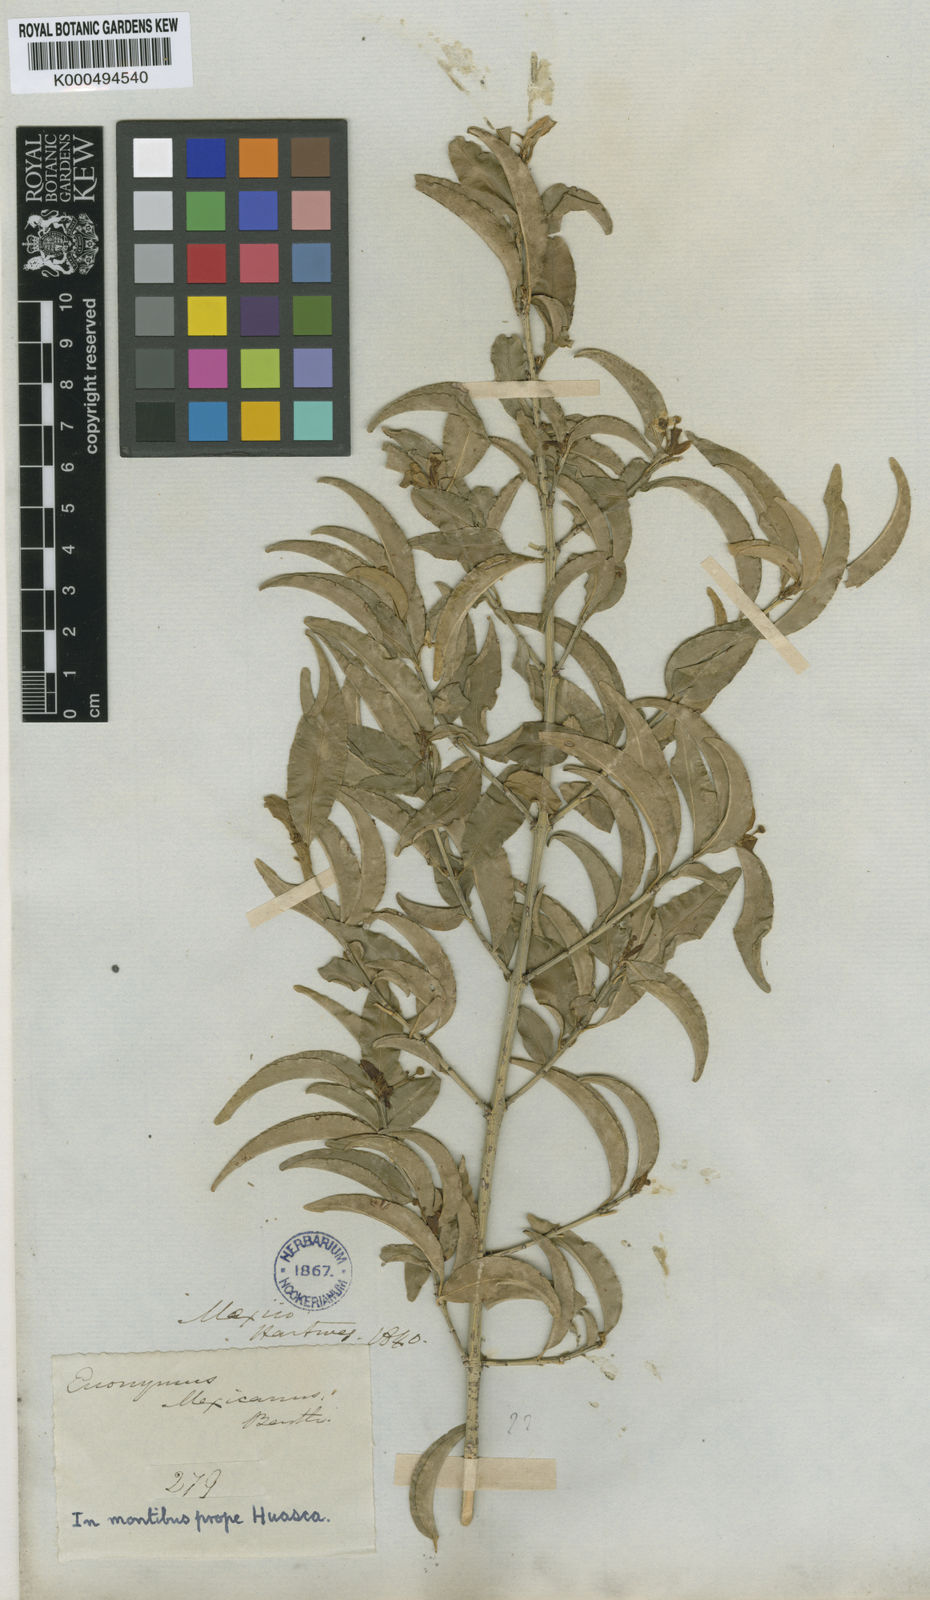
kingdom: Plantae
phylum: Tracheophyta
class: Magnoliopsida
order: Celastrales
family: Celastraceae
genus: Euonymus
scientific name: Euonymus mexicanus
